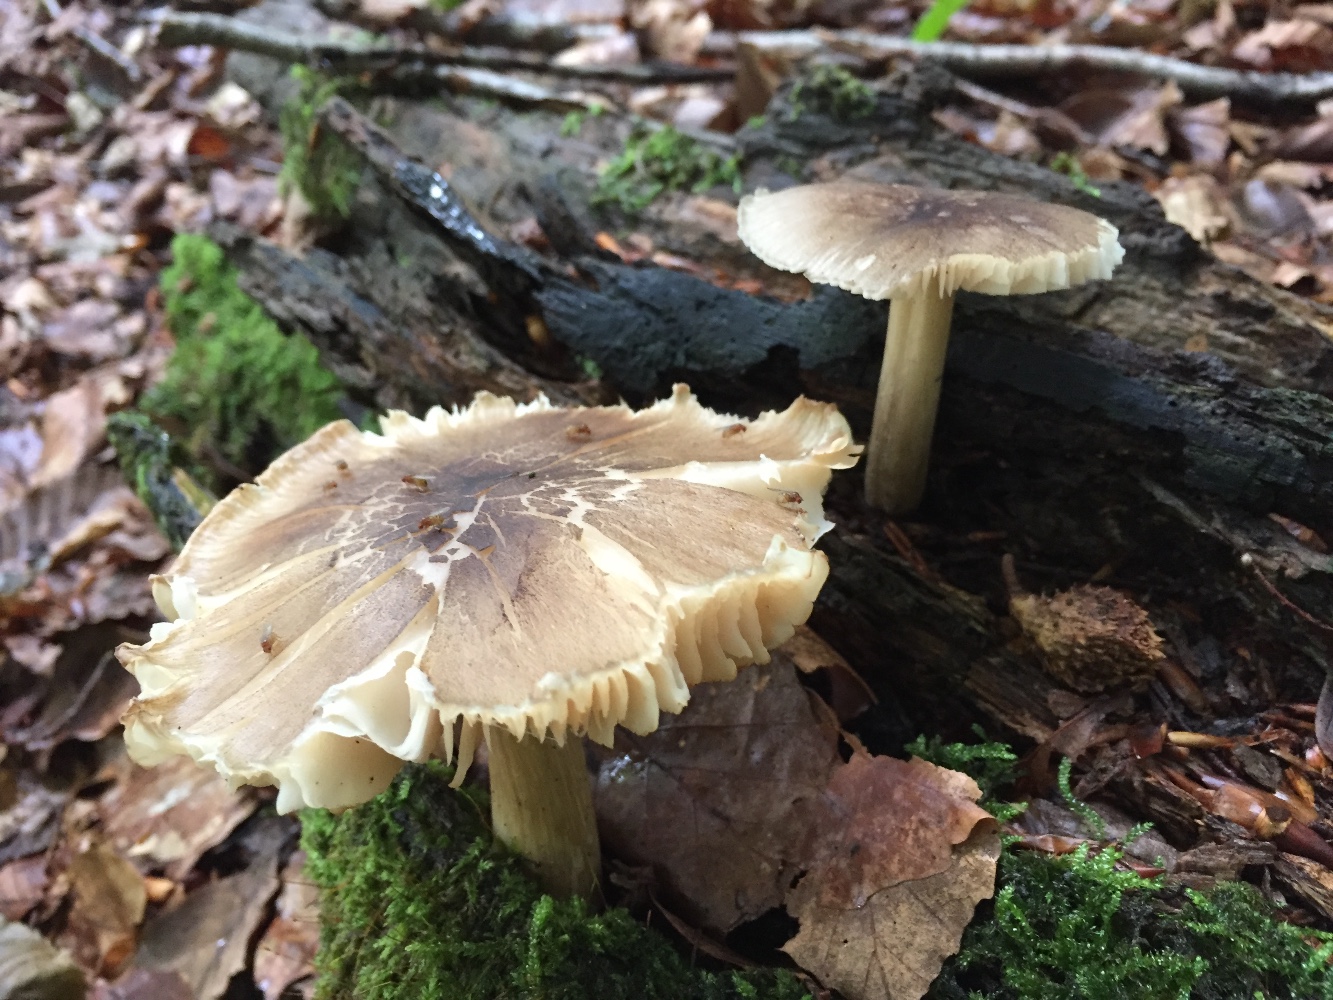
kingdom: Fungi
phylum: Basidiomycota
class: Agaricomycetes
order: Agaricales
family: Tricholomataceae
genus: Megacollybia
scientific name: Megacollybia platyphylla
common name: bredbladet væbnerhat
